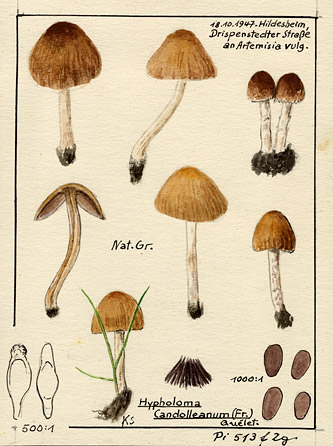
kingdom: Plantae
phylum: Tracheophyta
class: Magnoliopsida
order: Asterales
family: Asteraceae
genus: Artemisia
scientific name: Artemisia vulgaris
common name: Mugwort
